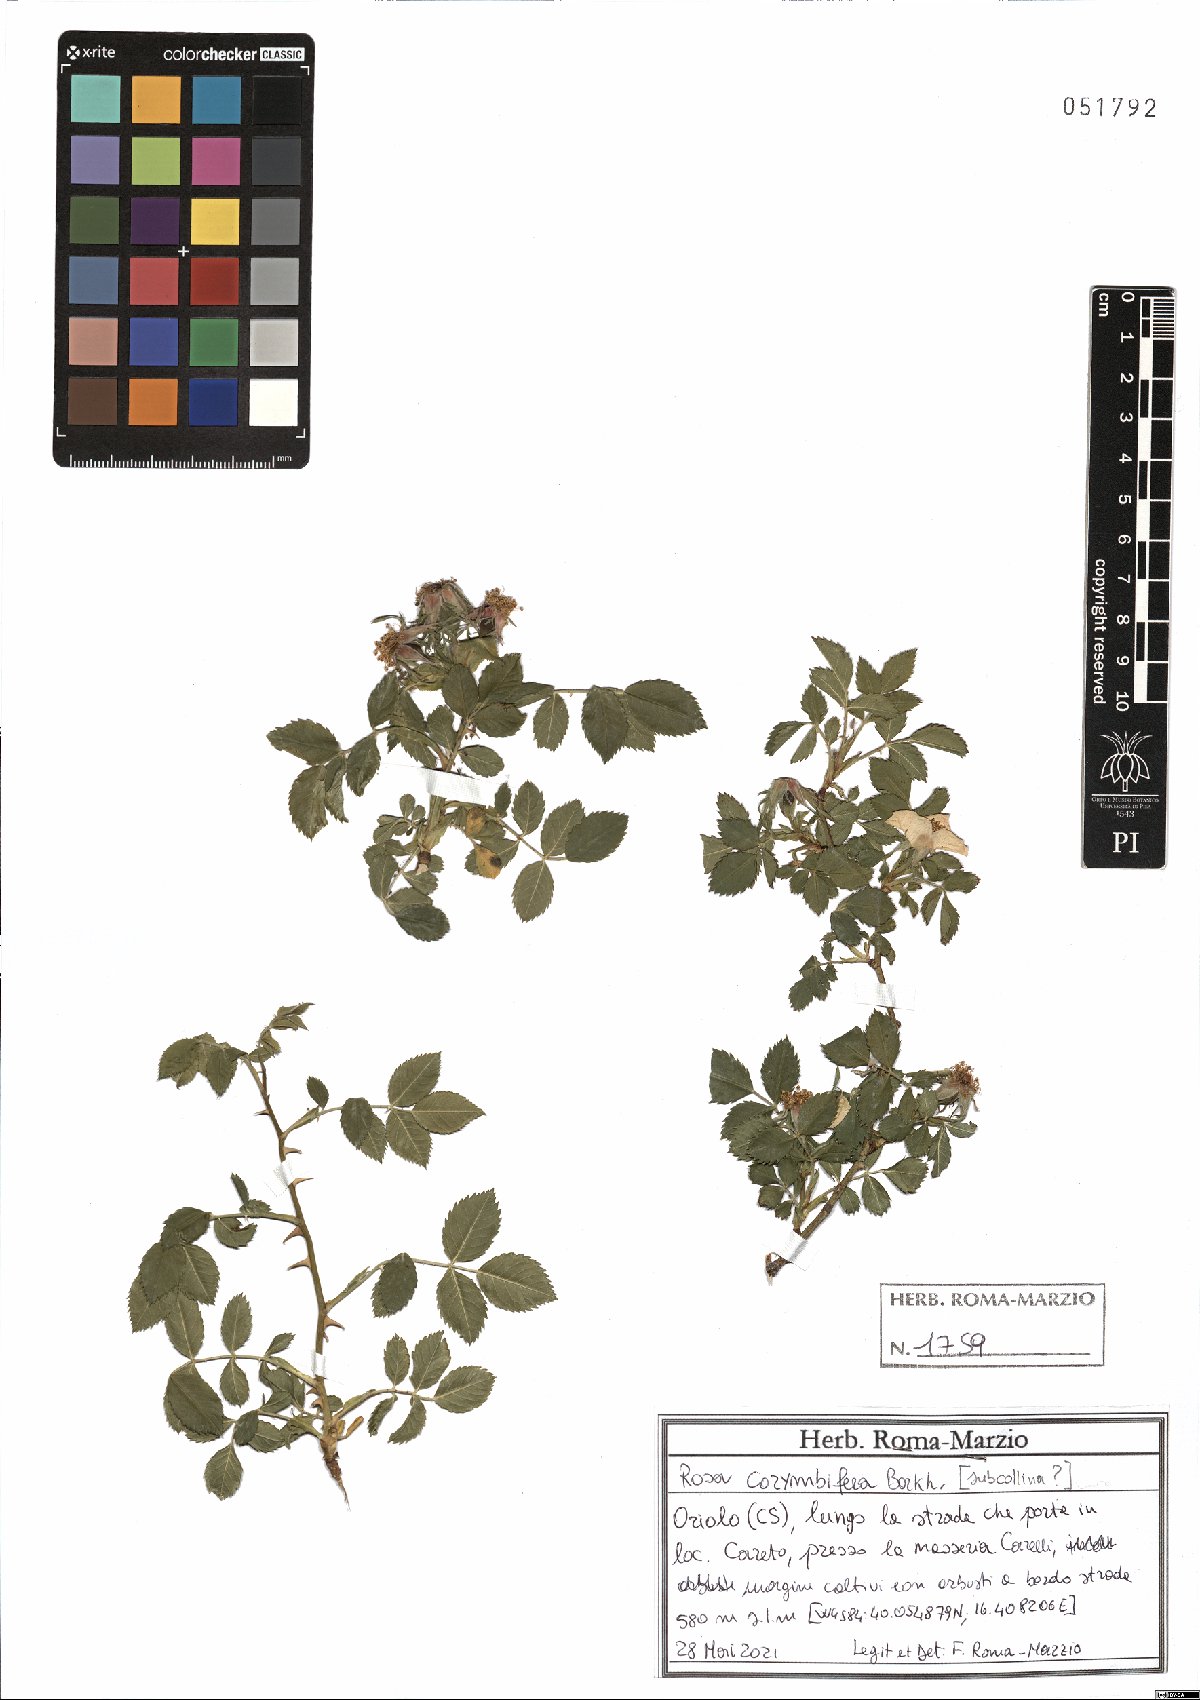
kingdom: Plantae
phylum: Tracheophyta
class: Magnoliopsida
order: Rosales
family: Rosaceae
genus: Rosa
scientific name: Rosa corymbifera
